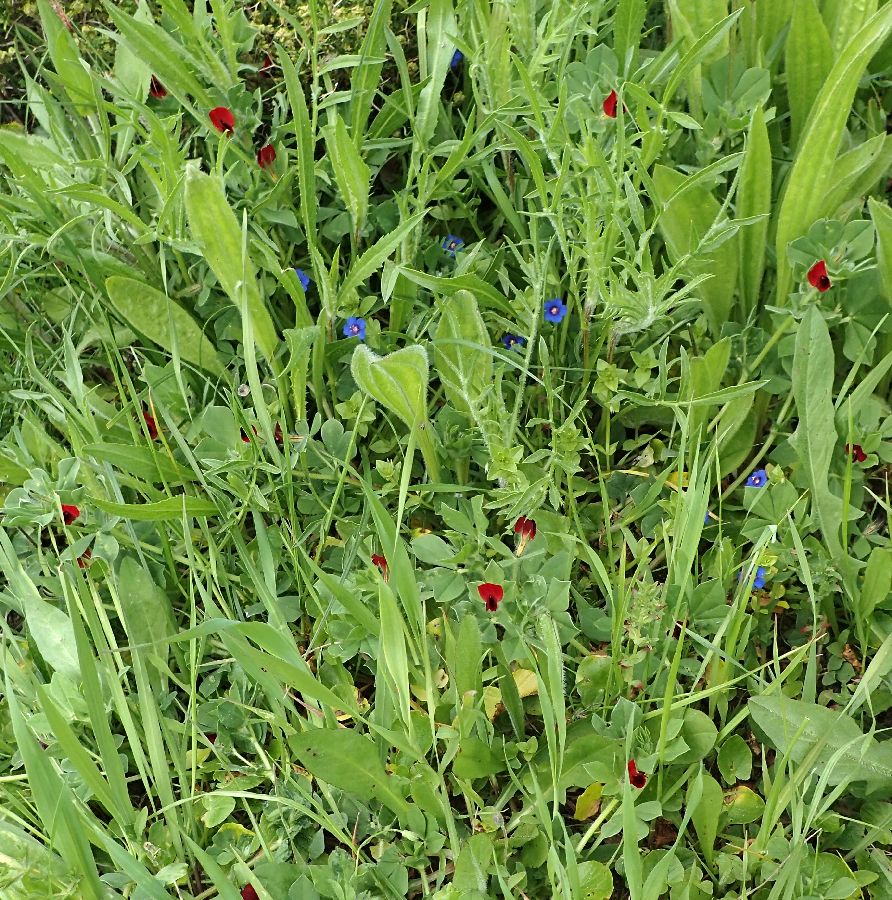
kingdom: Plantae
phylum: Tracheophyta
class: Magnoliopsida
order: Fabales
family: Fabaceae
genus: Lotus
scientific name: Lotus tetragonolobus
